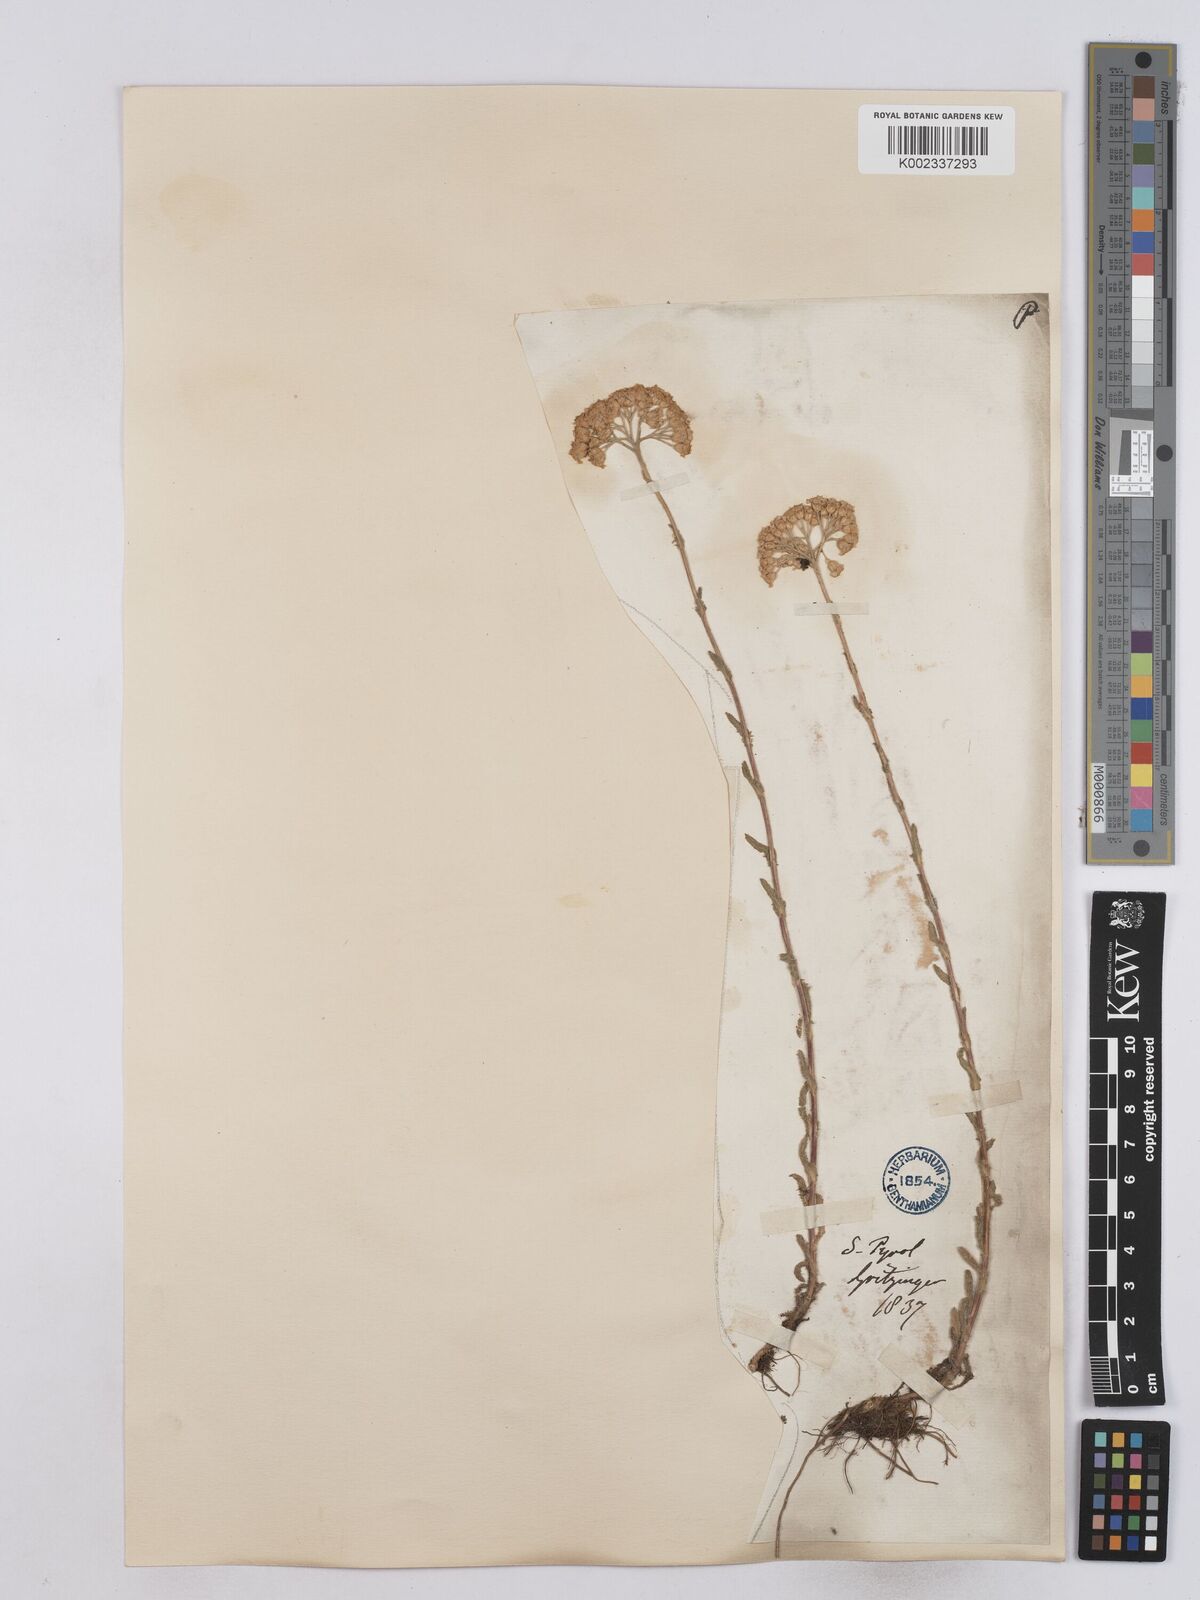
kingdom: Plantae
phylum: Tracheophyta
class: Magnoliopsida
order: Asterales
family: Asteraceae
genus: Achillea
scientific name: Achillea tomentosa
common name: Yellow milfoil
